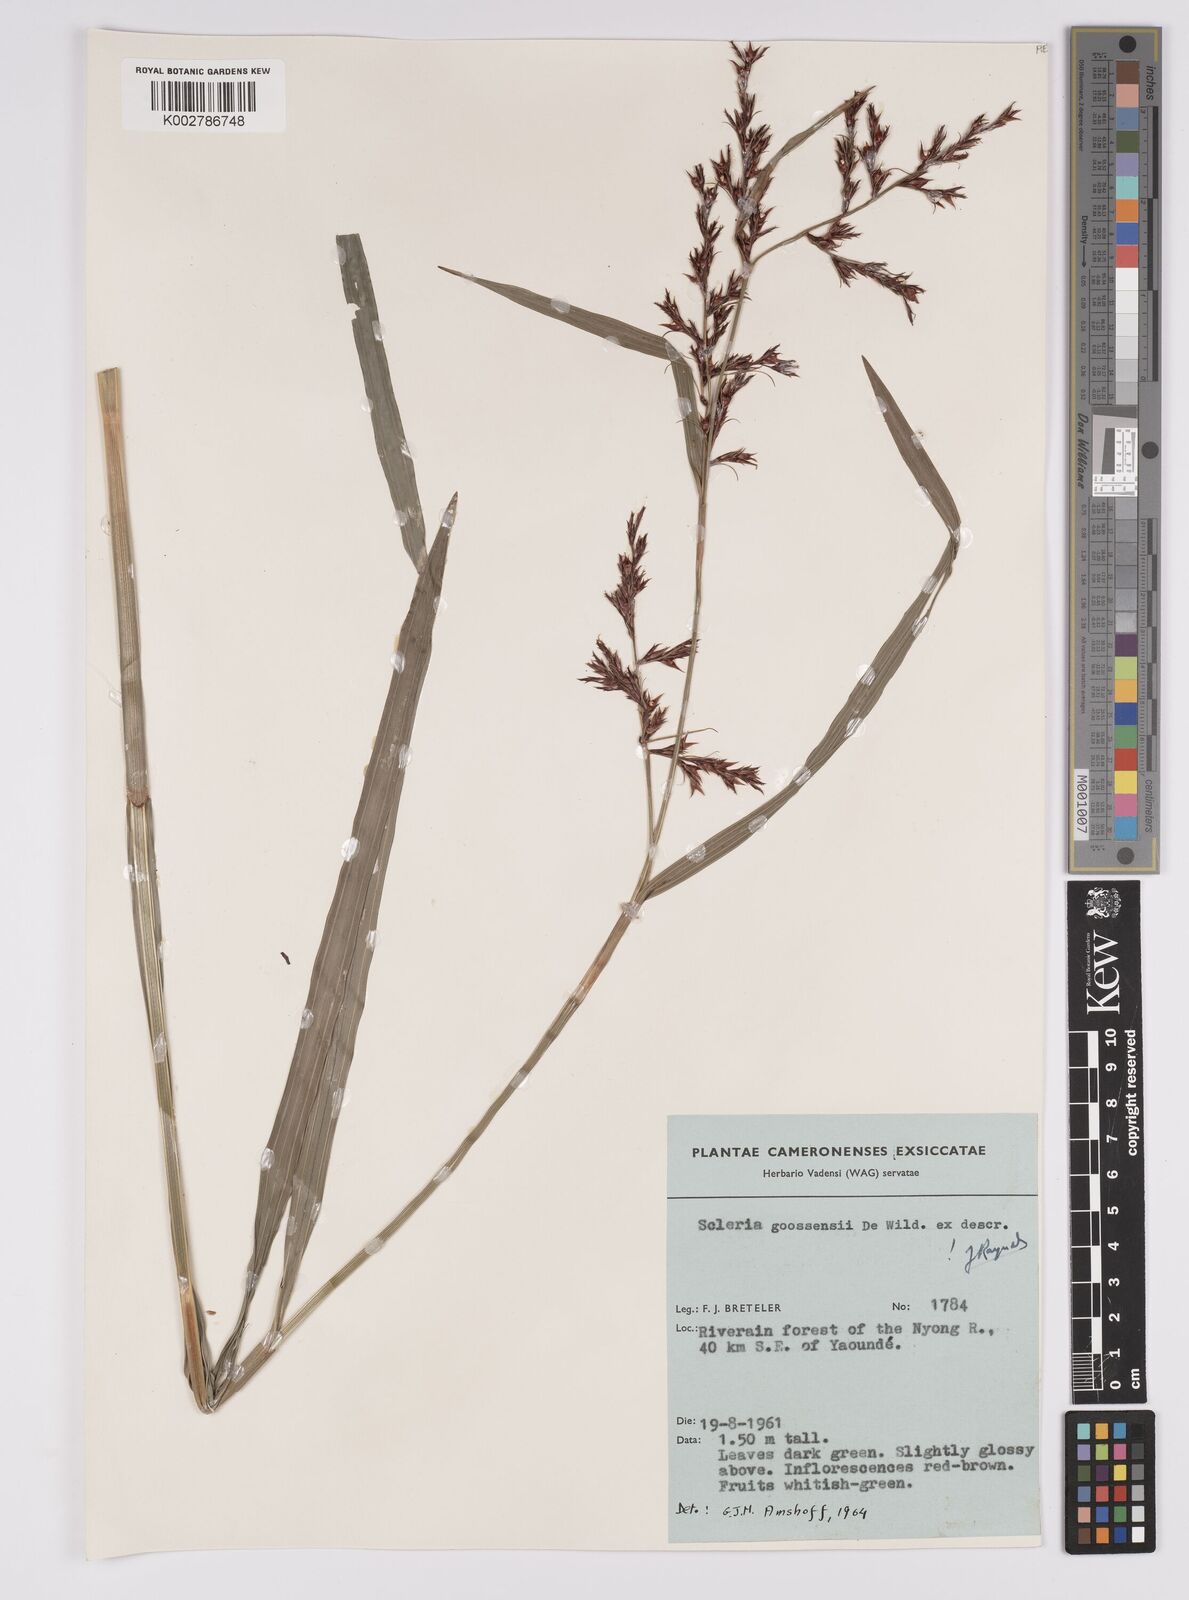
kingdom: Plantae
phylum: Tracheophyta
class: Liliopsida
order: Poales
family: Cyperaceae
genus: Scleria
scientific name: Scleria goossensii
